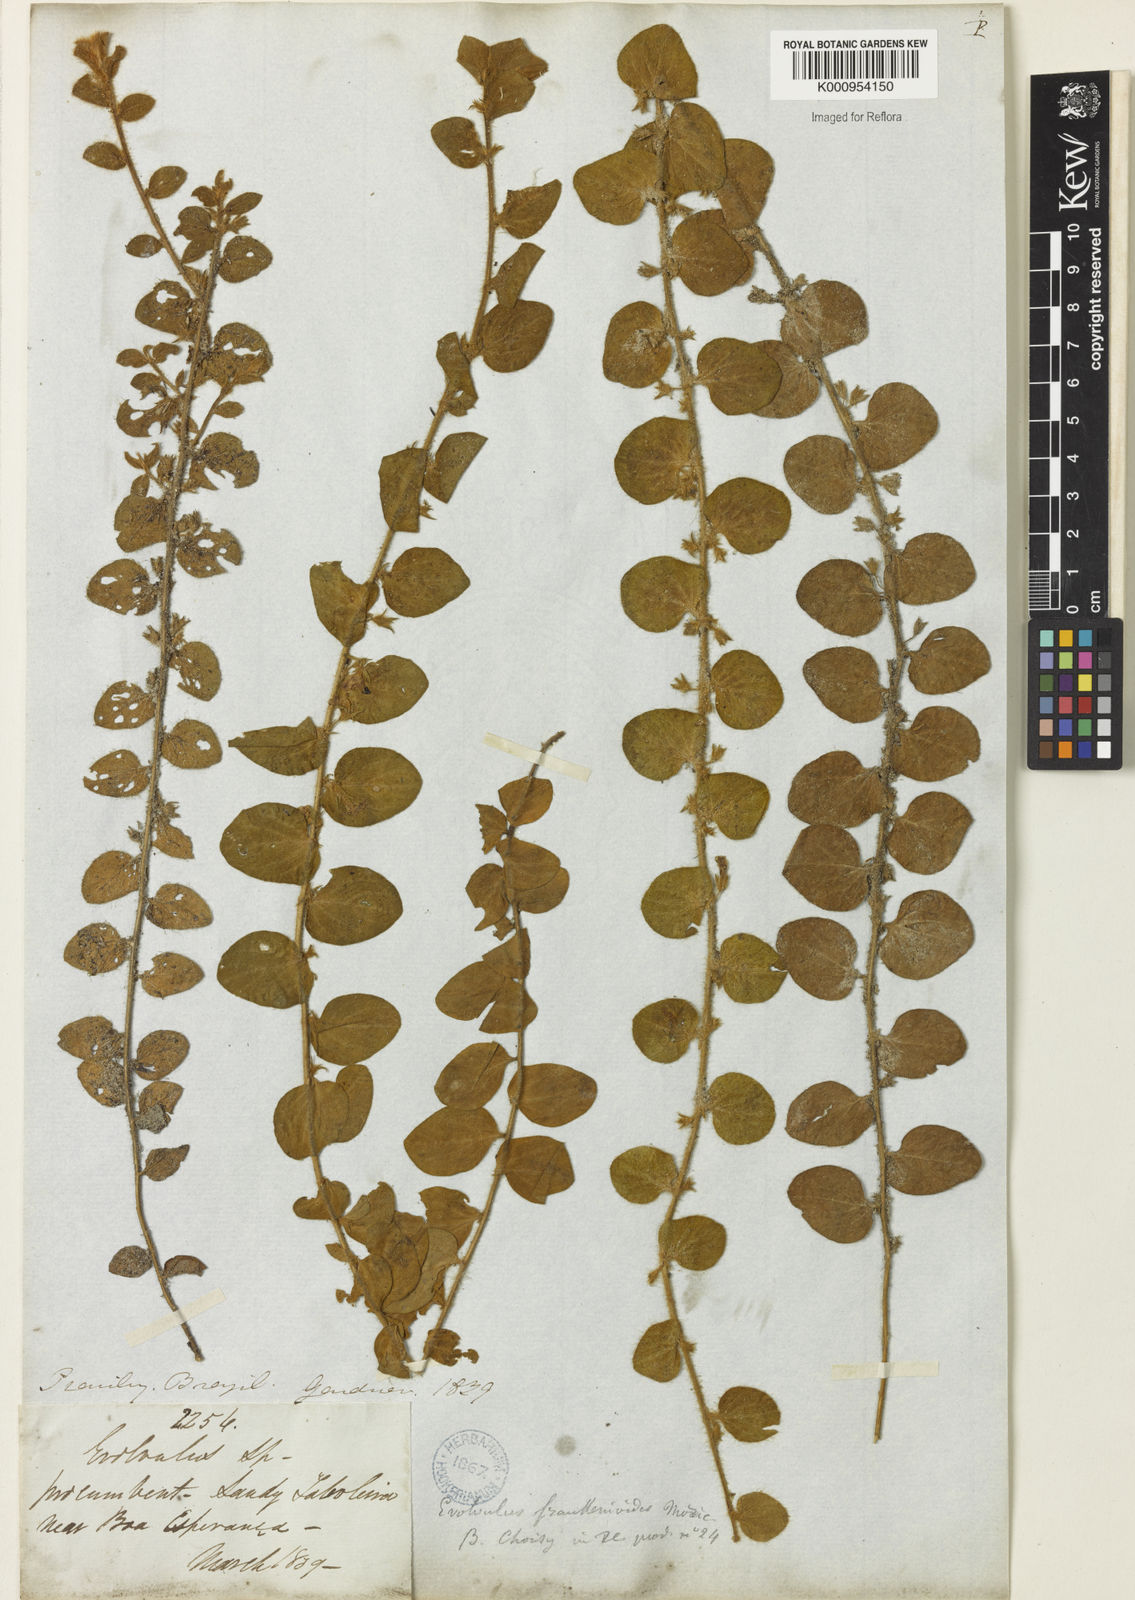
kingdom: Plantae
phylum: Tracheophyta
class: Magnoliopsida
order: Solanales
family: Convolvulaceae
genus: Evolvulus
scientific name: Evolvulus frankenioides
